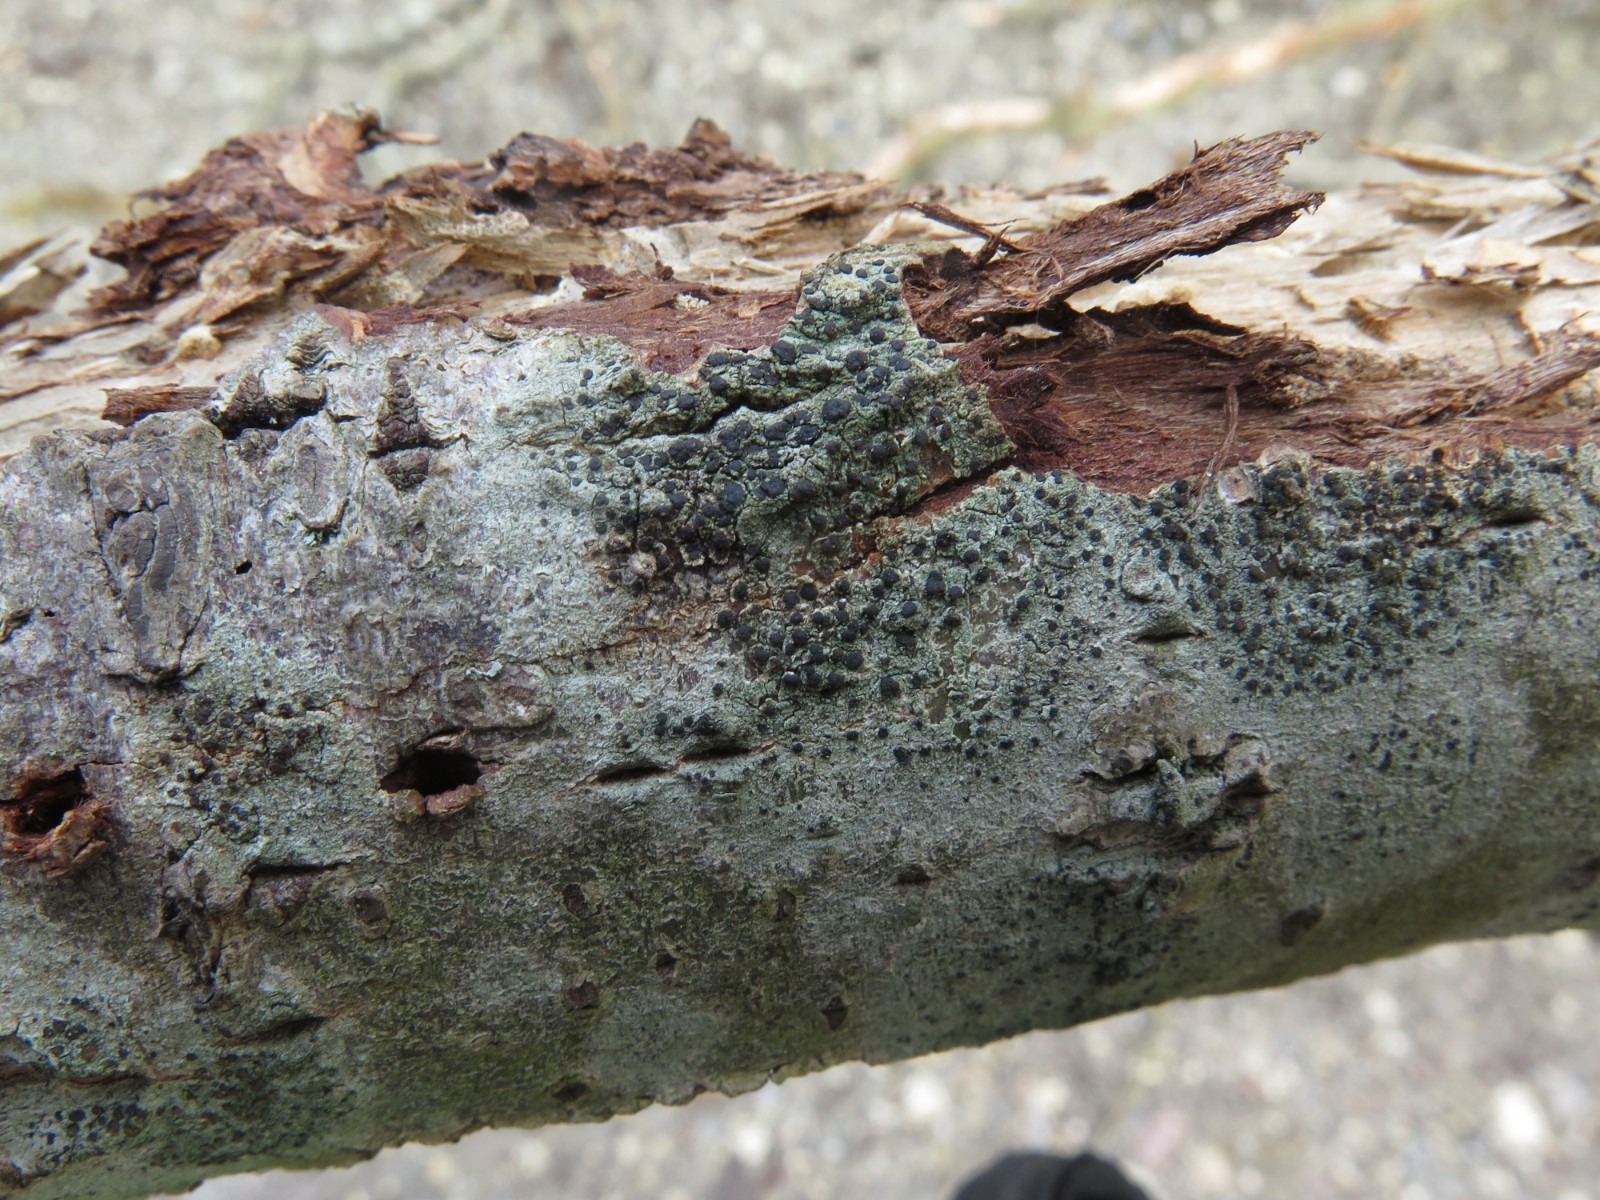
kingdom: Fungi
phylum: Ascomycota
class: Lecanoromycetes
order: Lecanorales
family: Lecanoraceae
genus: Lecidella
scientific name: Lecidella elaeochroma
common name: grågrøn skivelav
